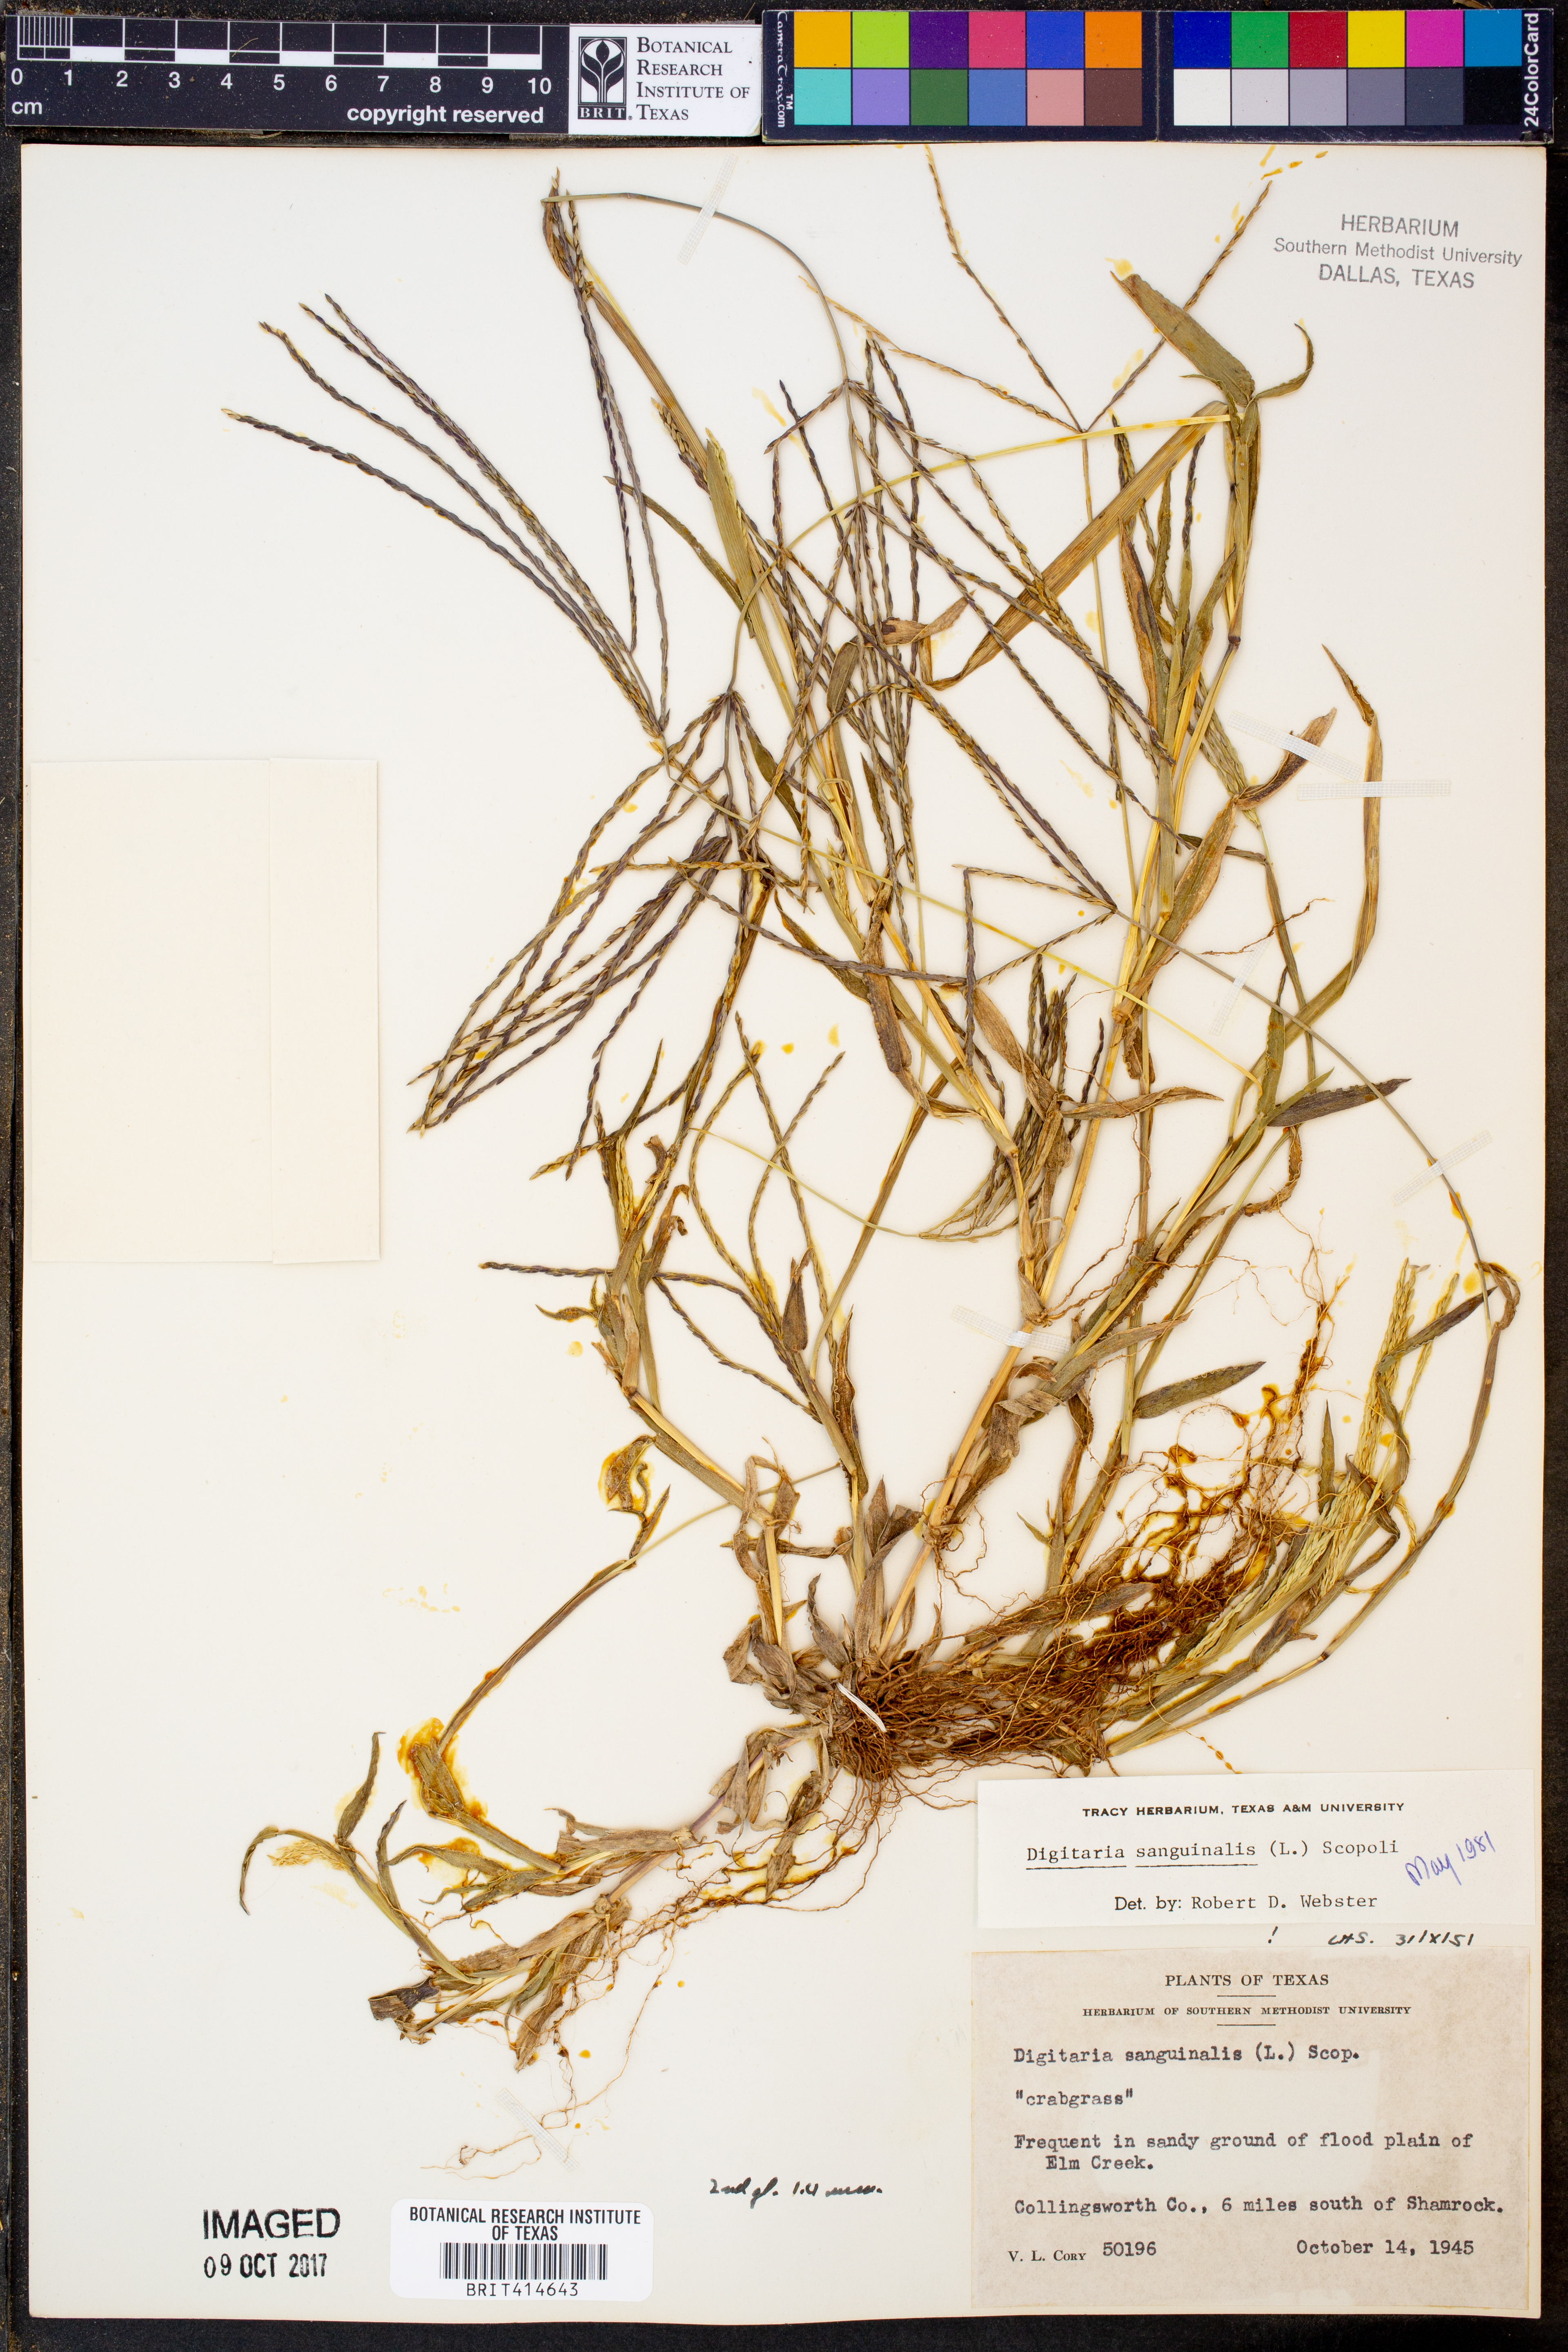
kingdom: Plantae
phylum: Tracheophyta
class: Liliopsida
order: Poales
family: Poaceae
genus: Digitaria
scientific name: Digitaria sanguinalis
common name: Hairy crabgrass
